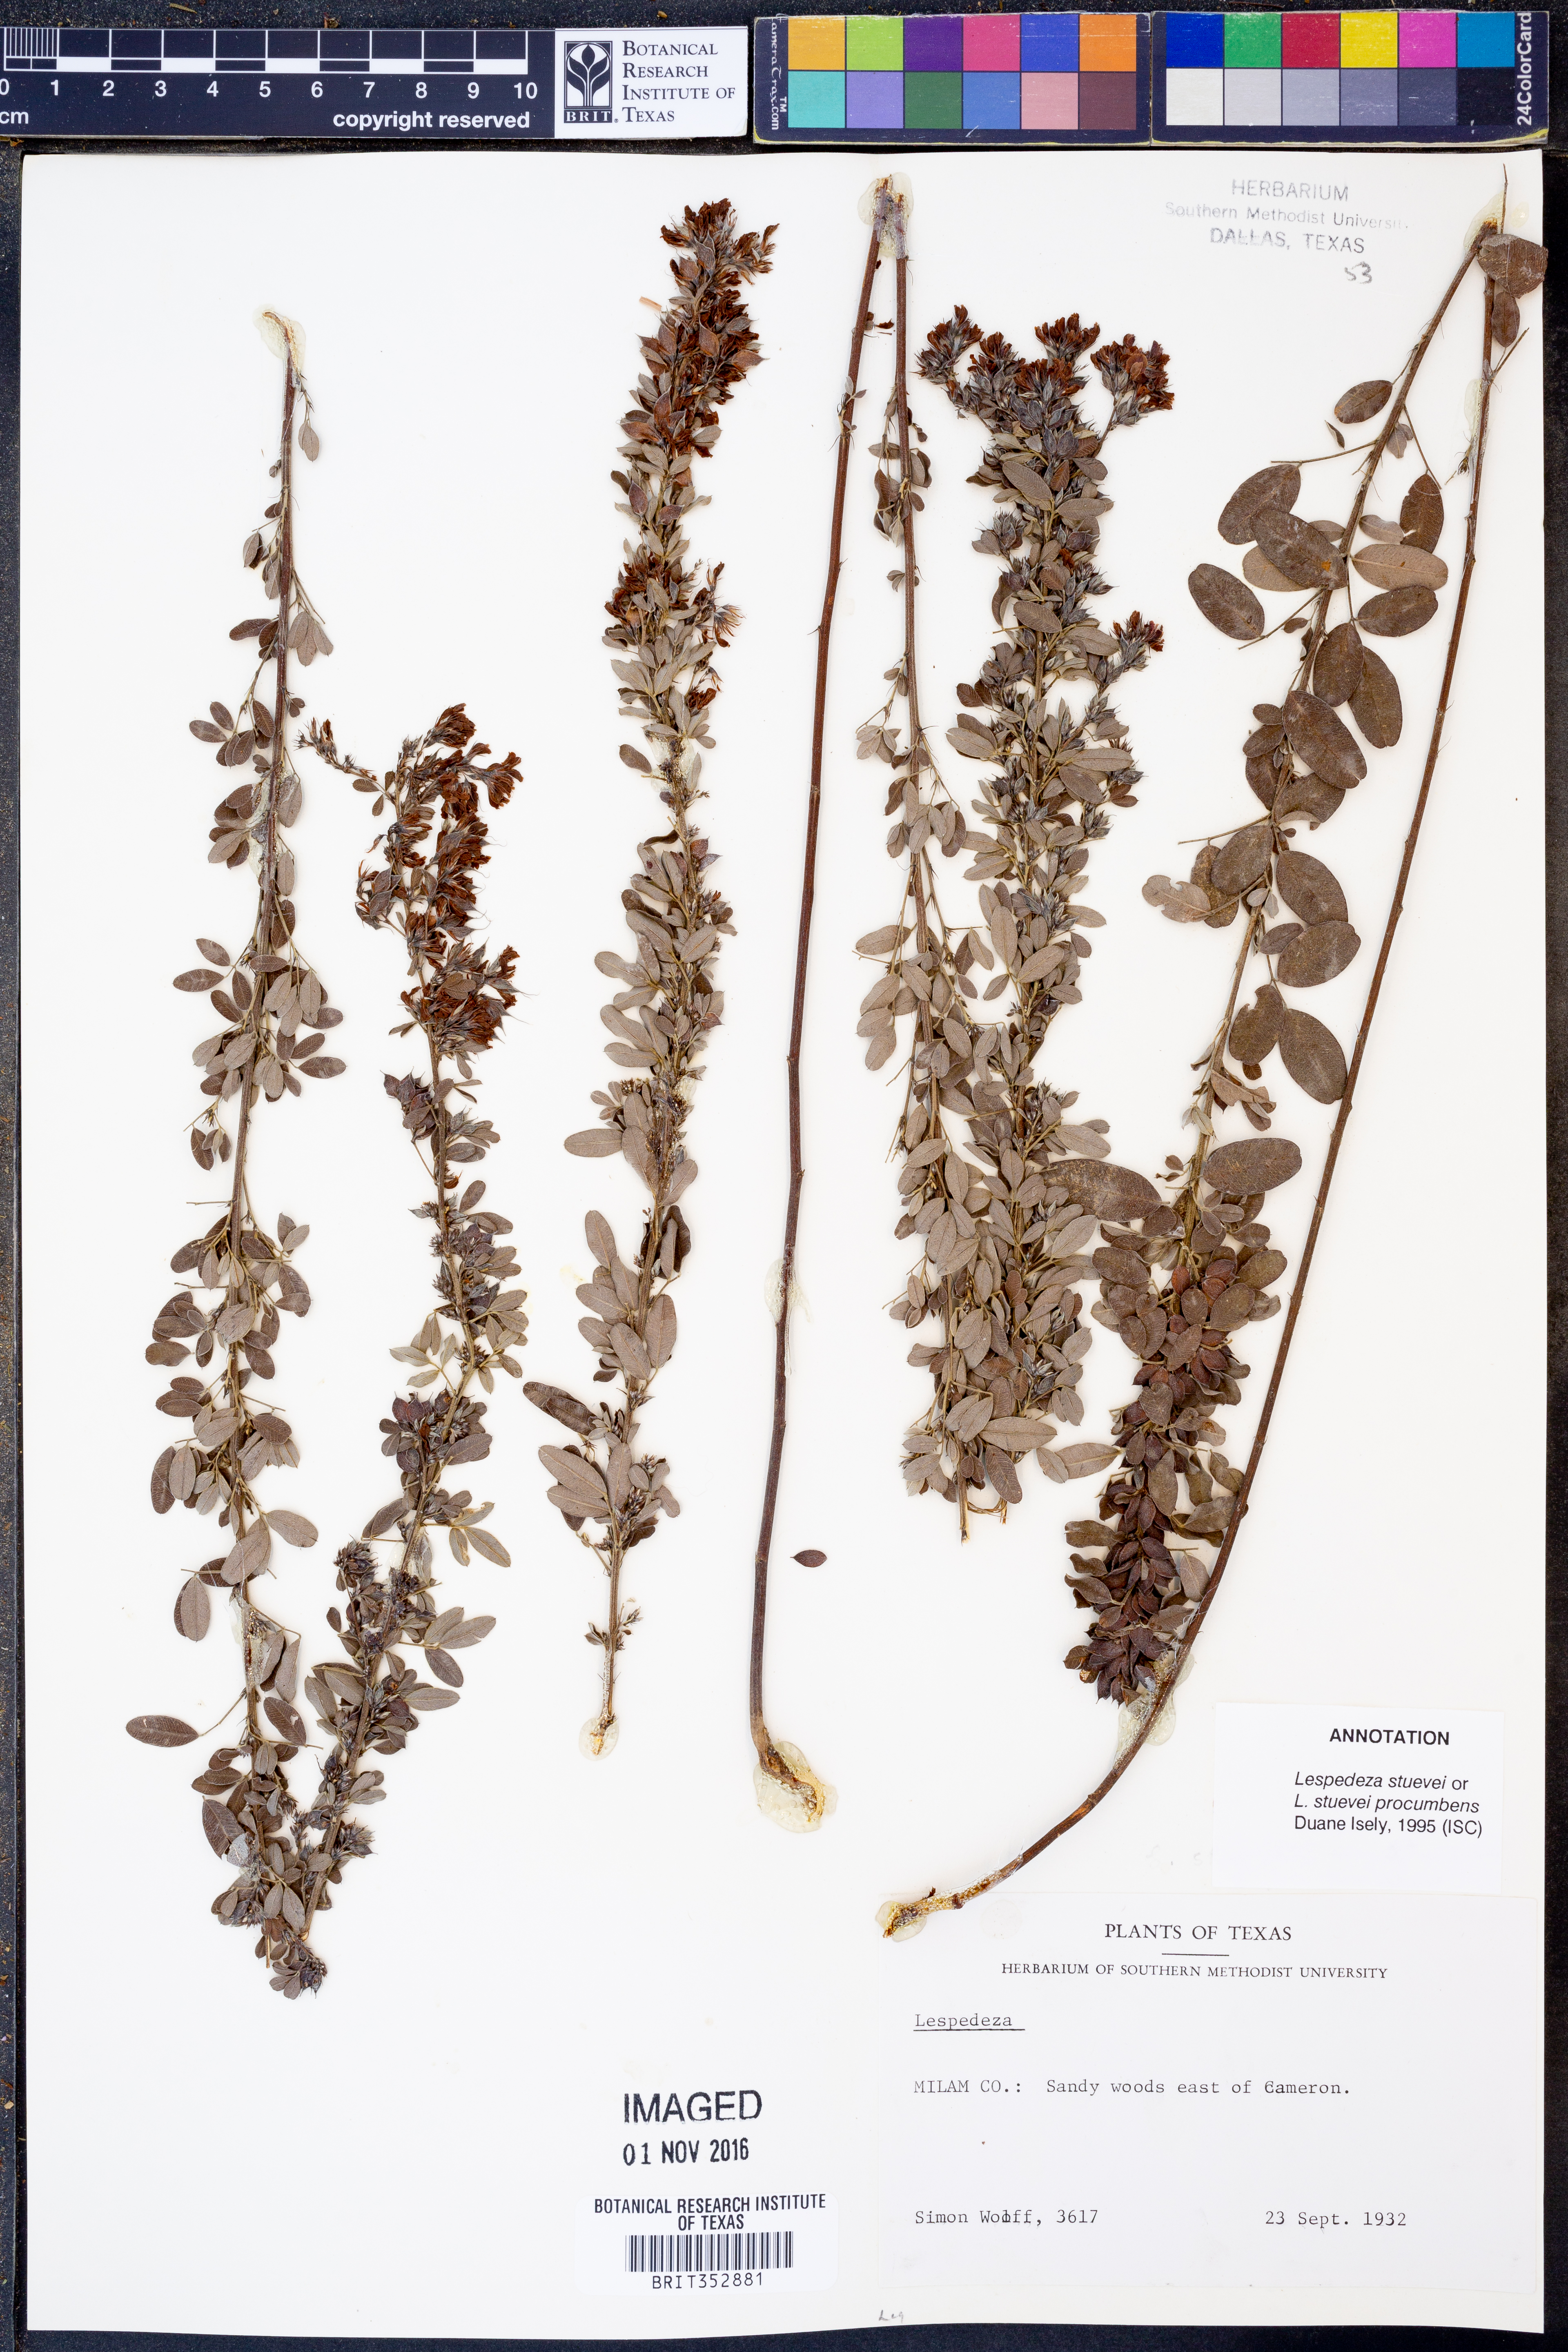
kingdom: Plantae
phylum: Tracheophyta
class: Magnoliopsida
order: Fabales
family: Fabaceae
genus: Lespedeza
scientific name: Lespedeza stuevei
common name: Tall bush-clover
